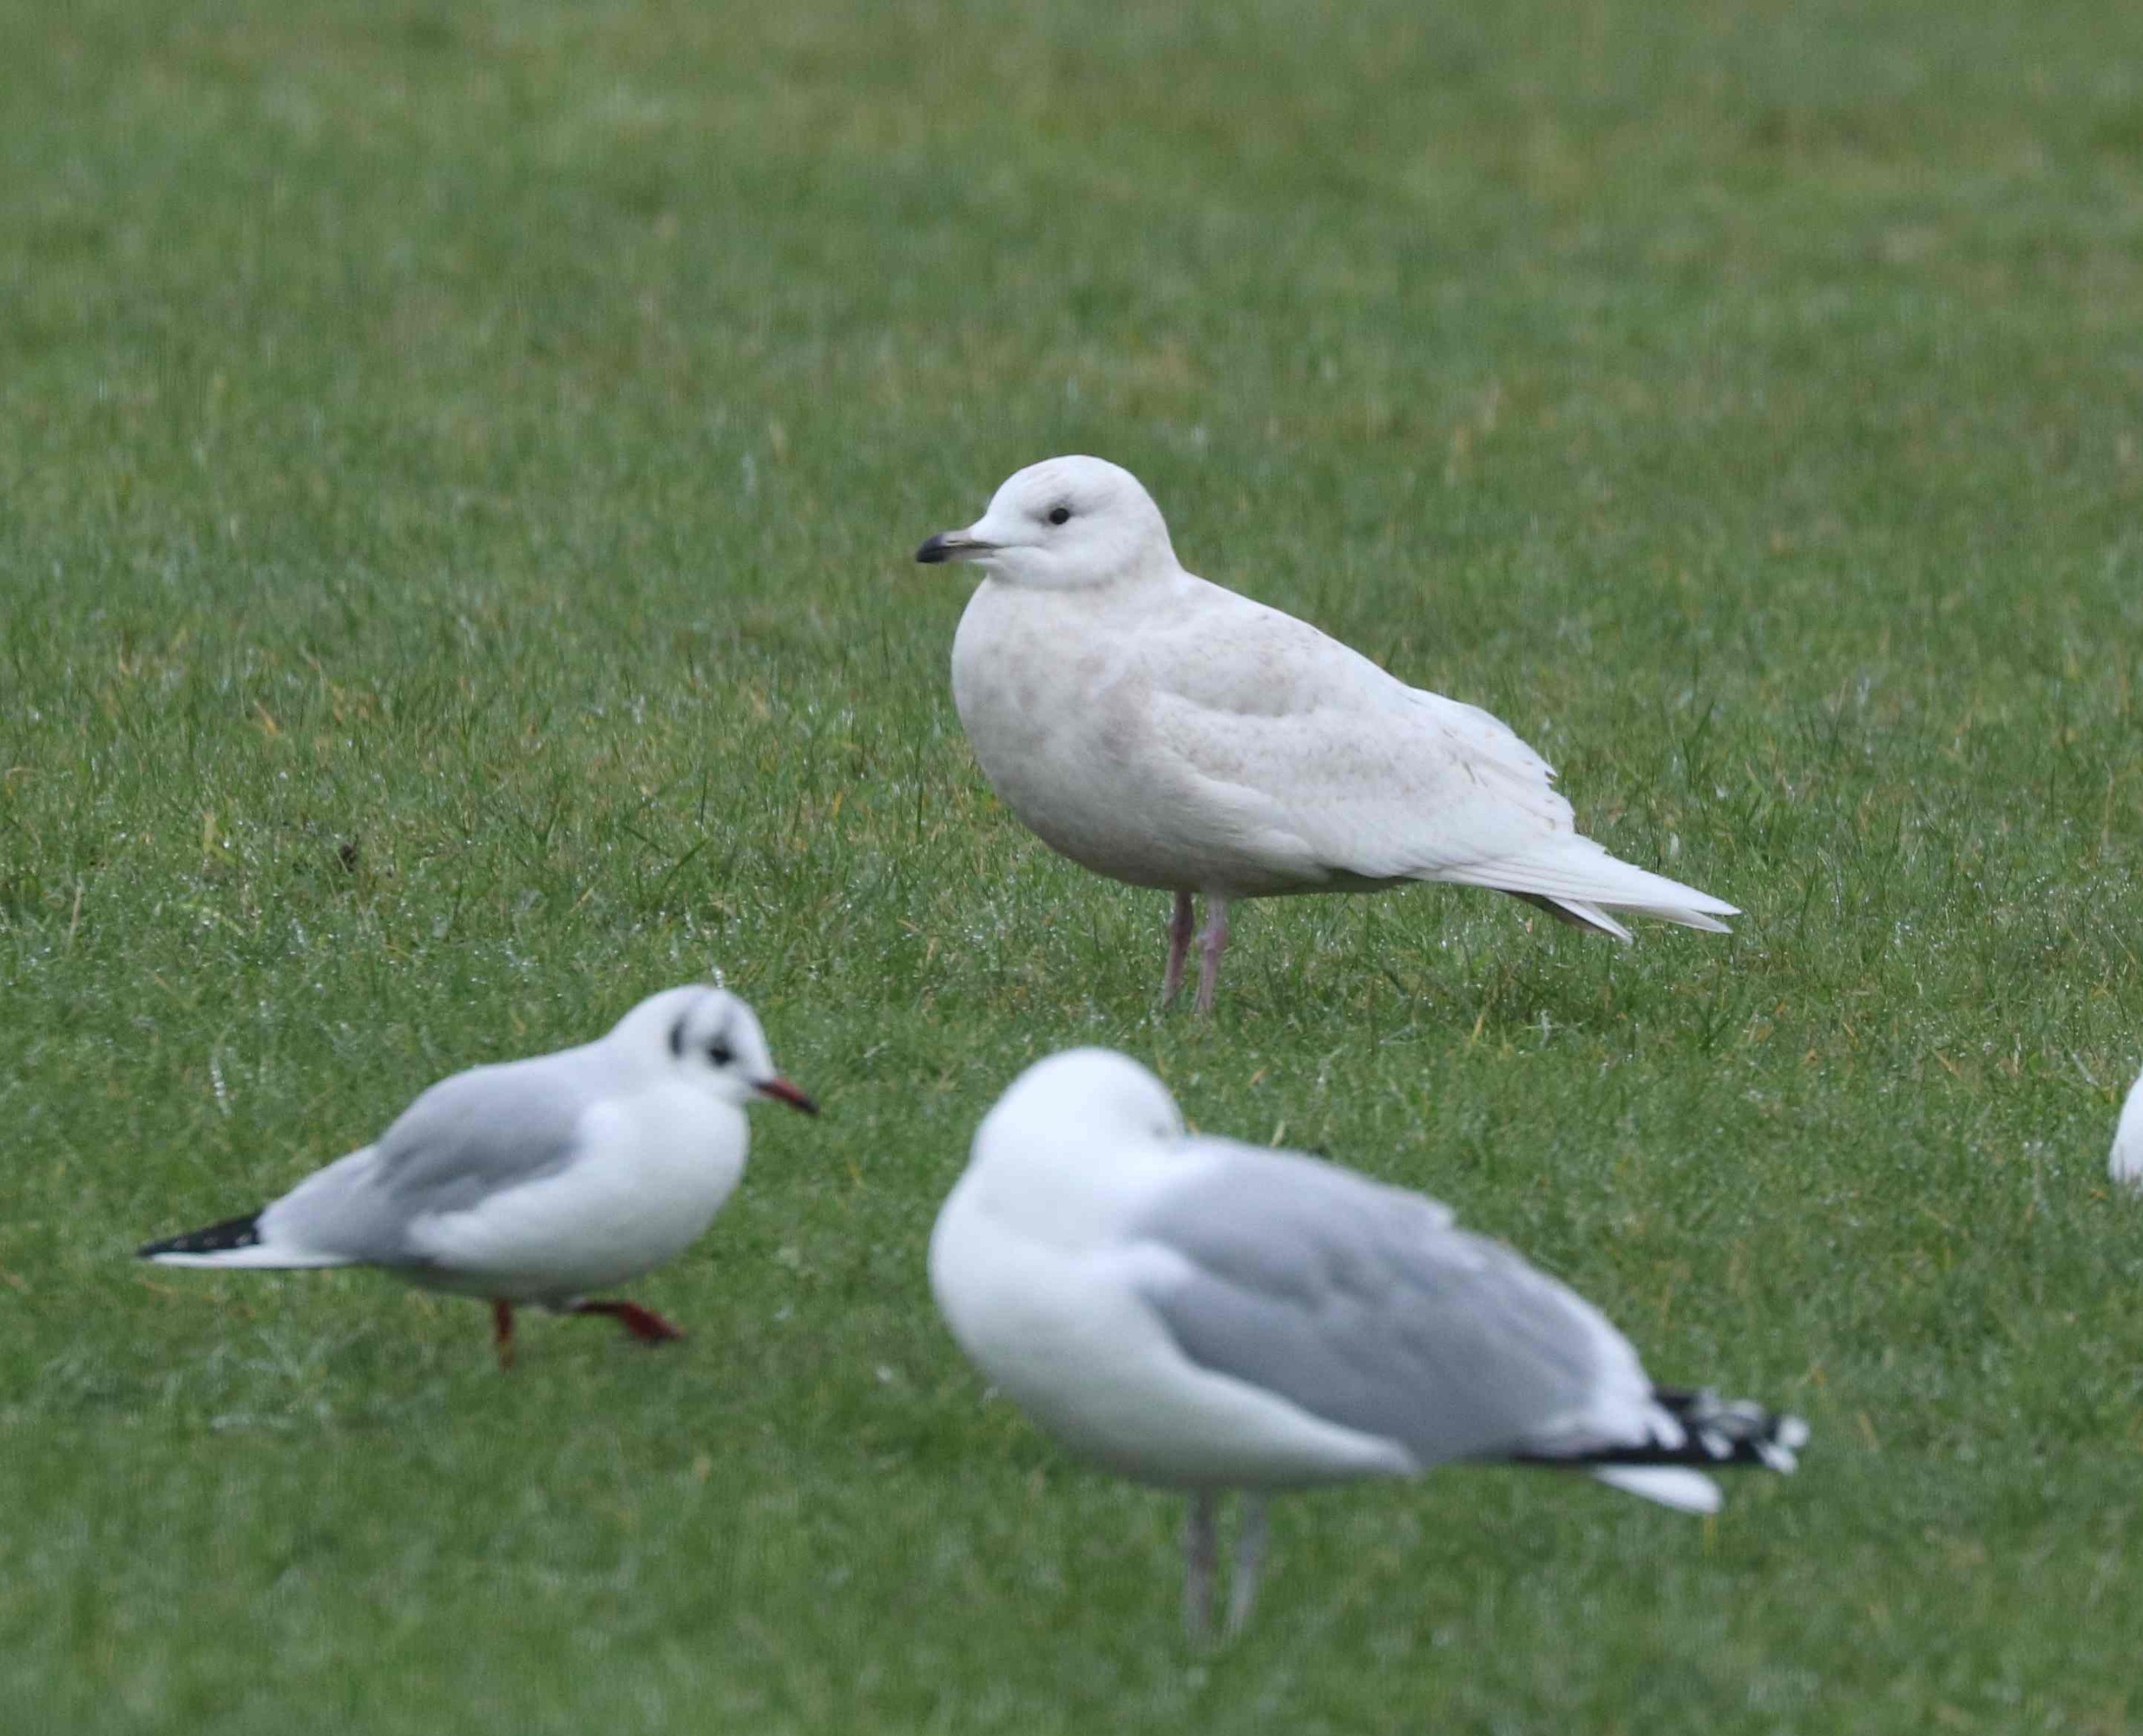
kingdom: Animalia
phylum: Chordata
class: Aves
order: Charadriiformes
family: Laridae
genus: Larus
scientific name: Larus glaucoides
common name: Hvidvinget måge
